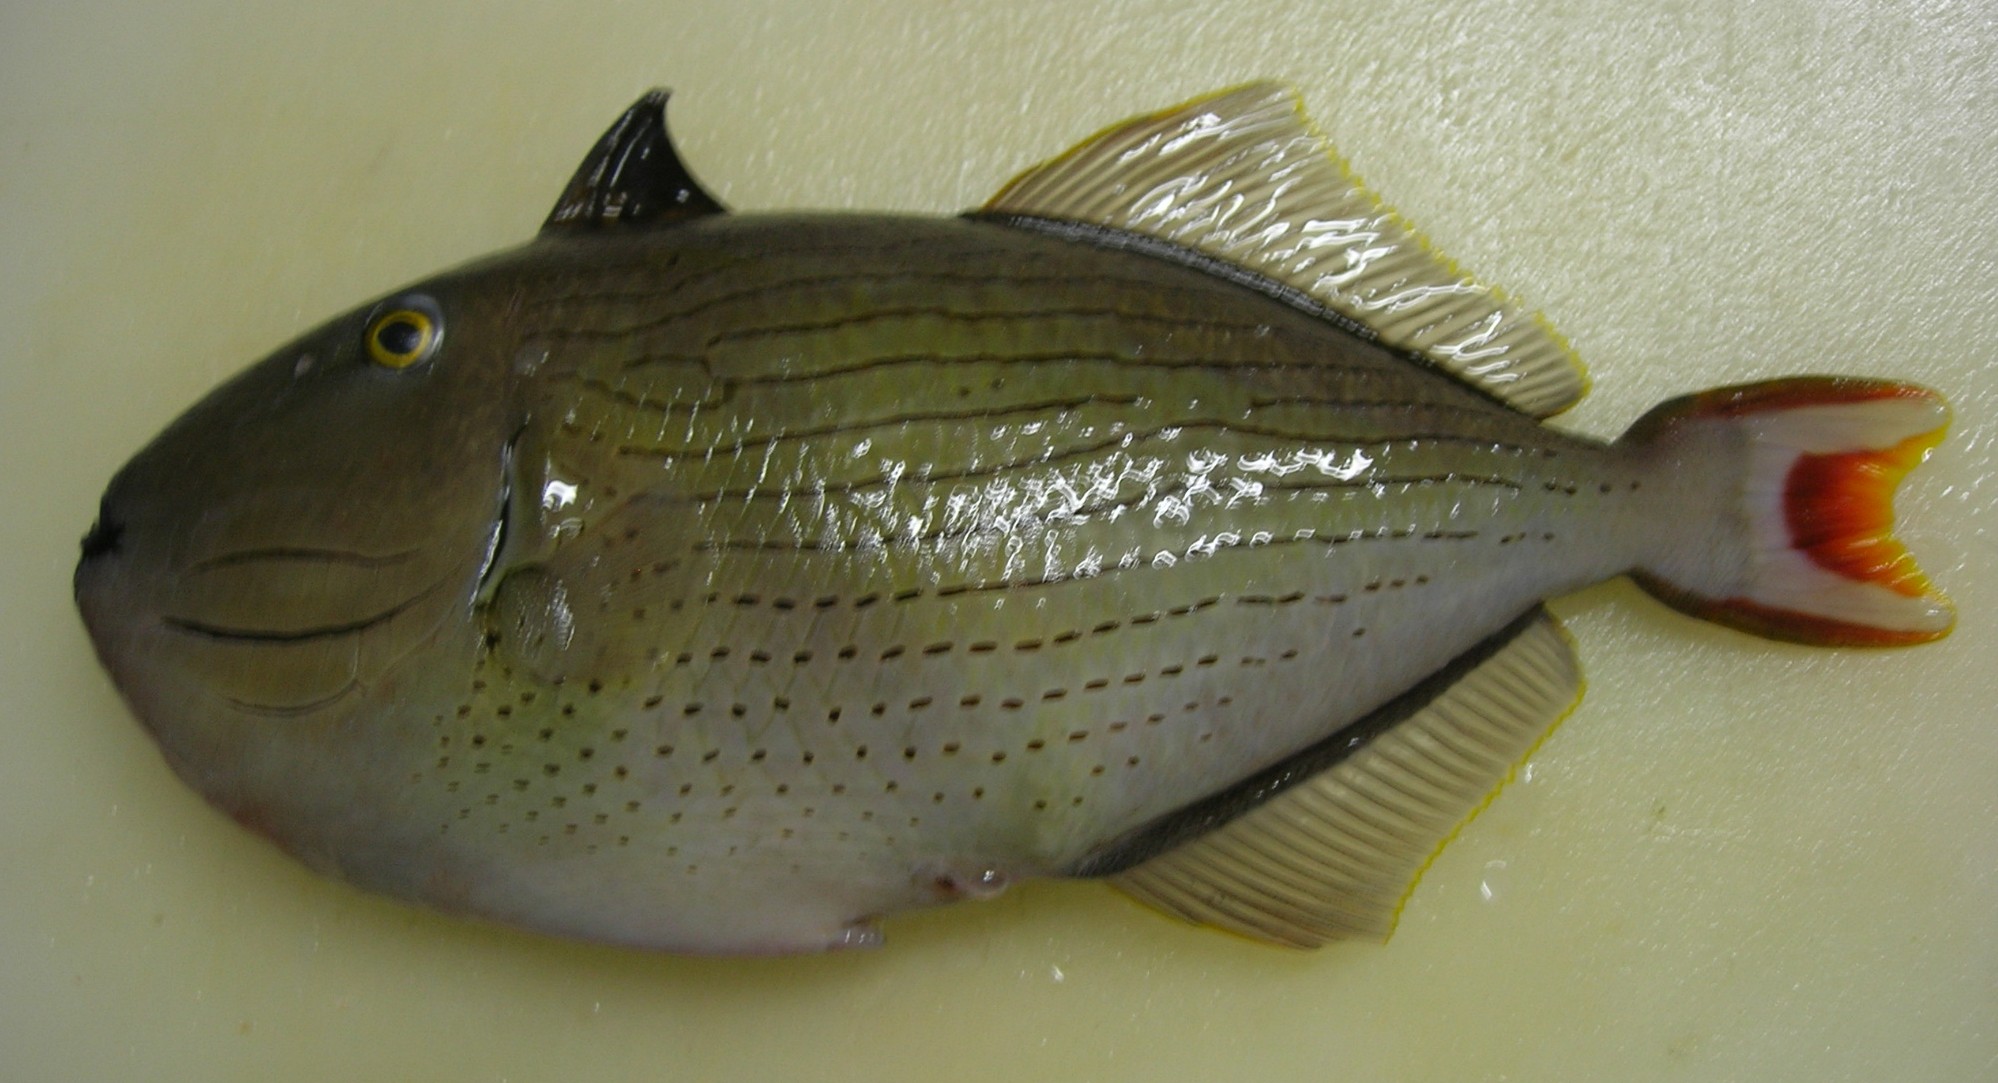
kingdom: Animalia
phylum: Chordata
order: Tetraodontiformes
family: Balistidae
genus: Xanthichthys
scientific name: Xanthichthys lineopunctatus
